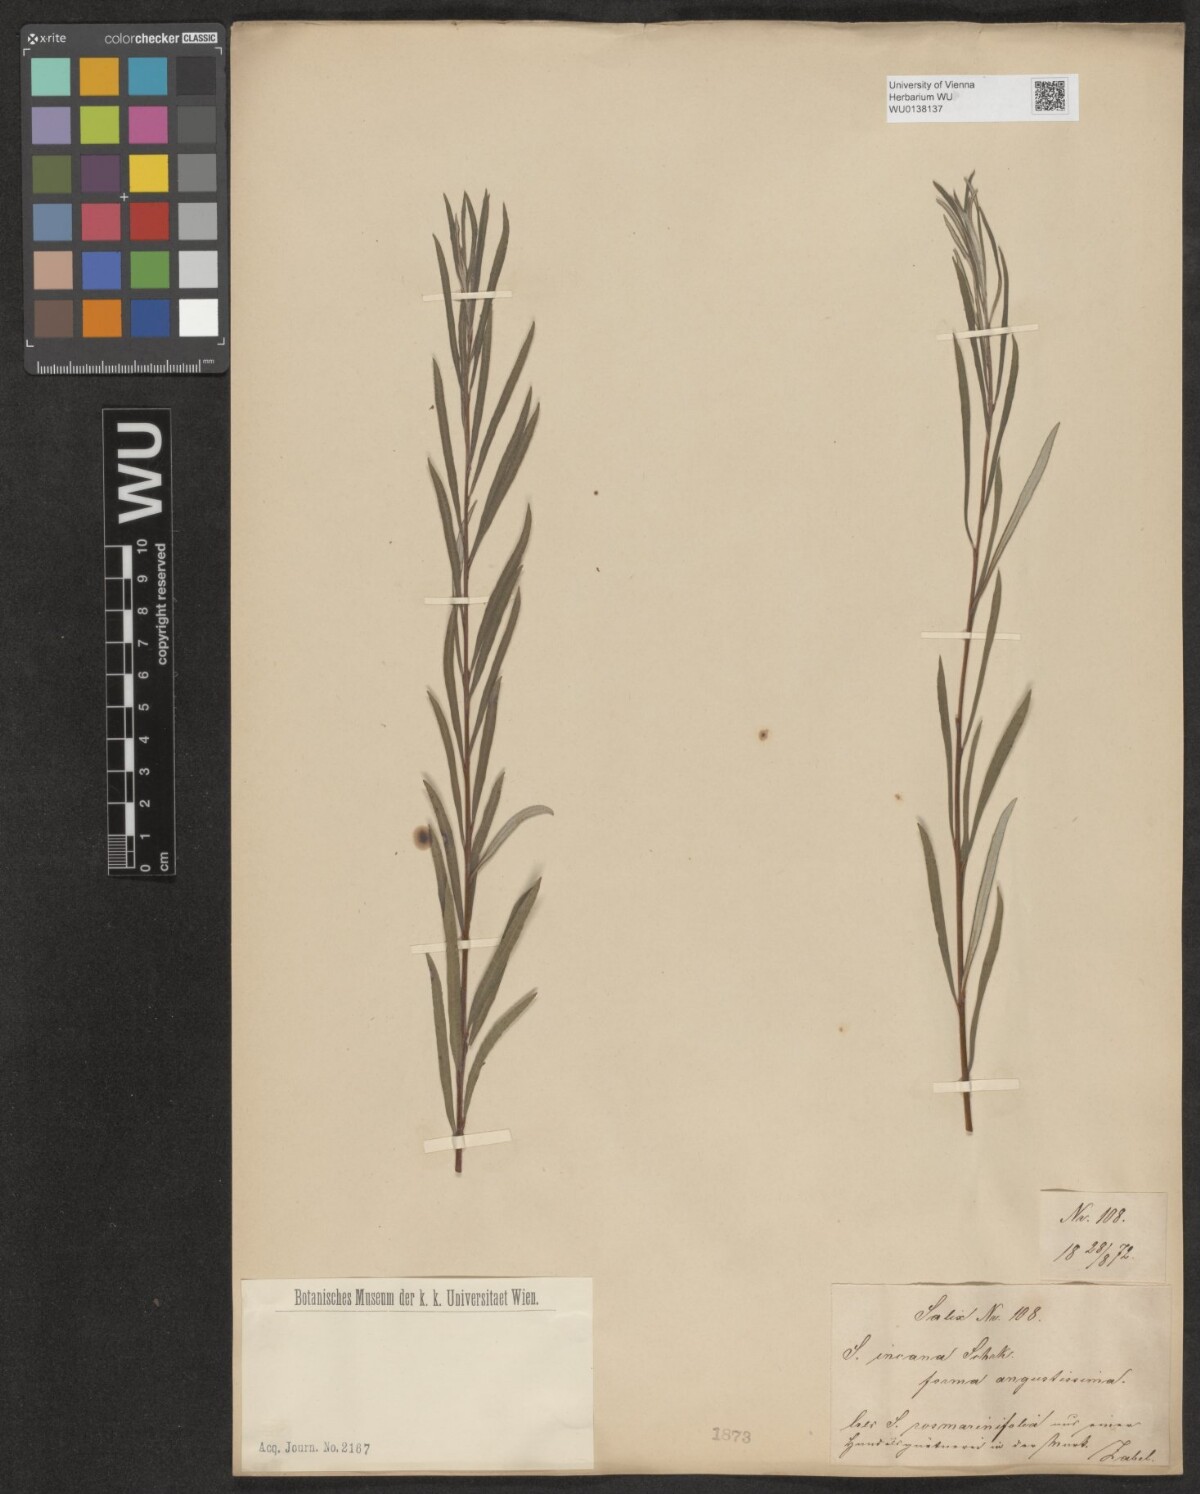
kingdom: Plantae
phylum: Tracheophyta
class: Magnoliopsida
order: Malpighiales
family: Salicaceae
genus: Salix
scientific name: Salix eleagnos
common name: Elaeagnus willow
